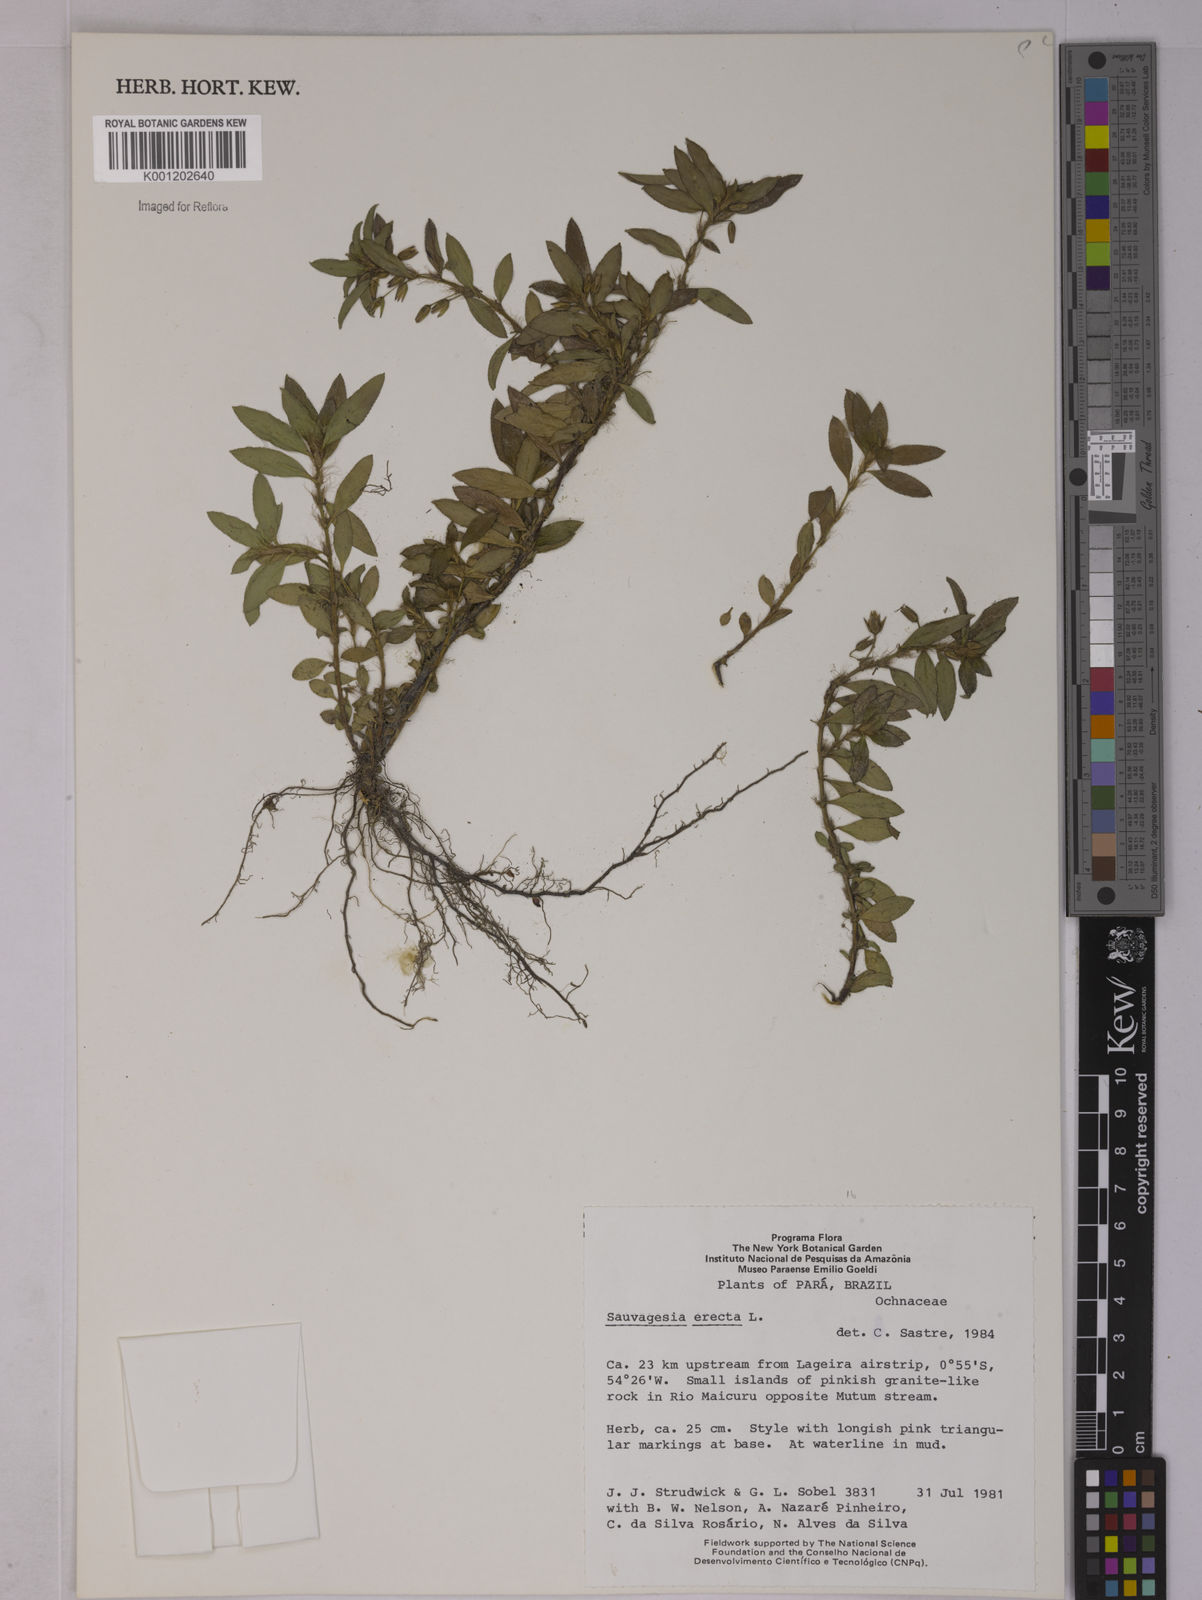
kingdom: Plantae
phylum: Tracheophyta
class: Magnoliopsida
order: Malpighiales
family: Ochnaceae
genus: Sauvagesia
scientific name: Sauvagesia erecta
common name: Creole tea
